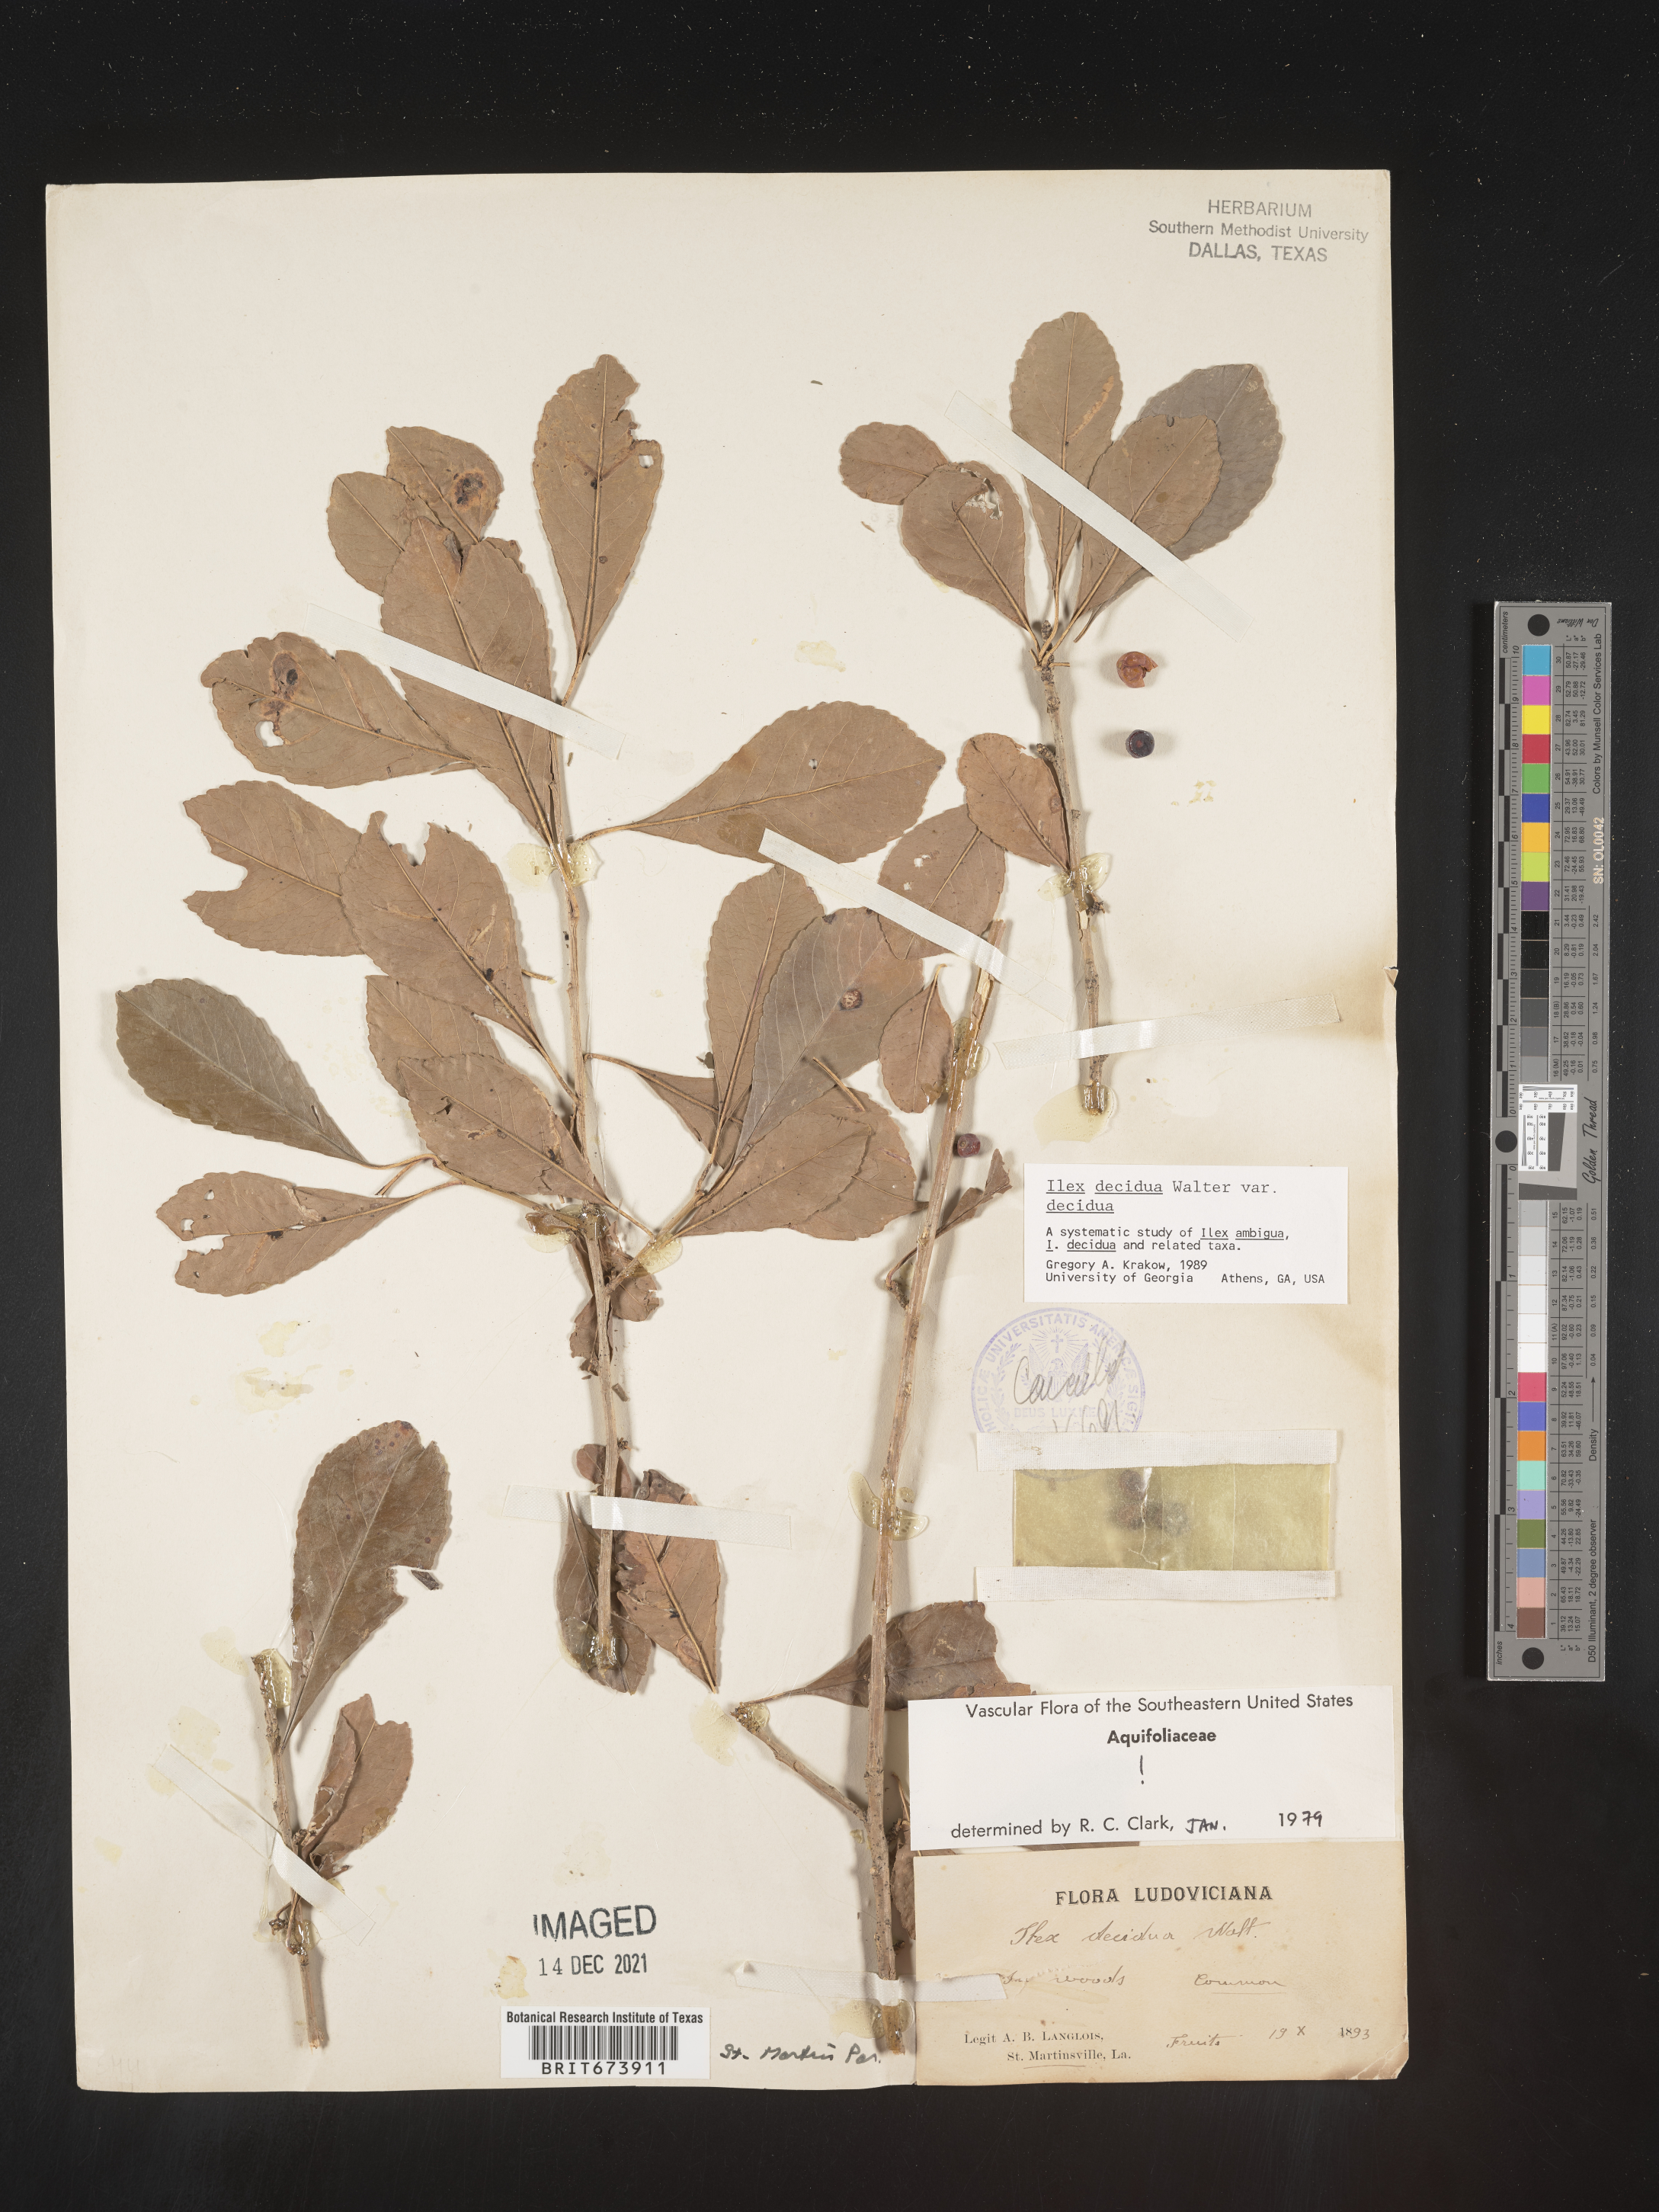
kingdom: Plantae
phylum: Tracheophyta
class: Magnoliopsida
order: Aquifoliales
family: Aquifoliaceae
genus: Ilex
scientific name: Ilex decidua
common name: Possum-haw
